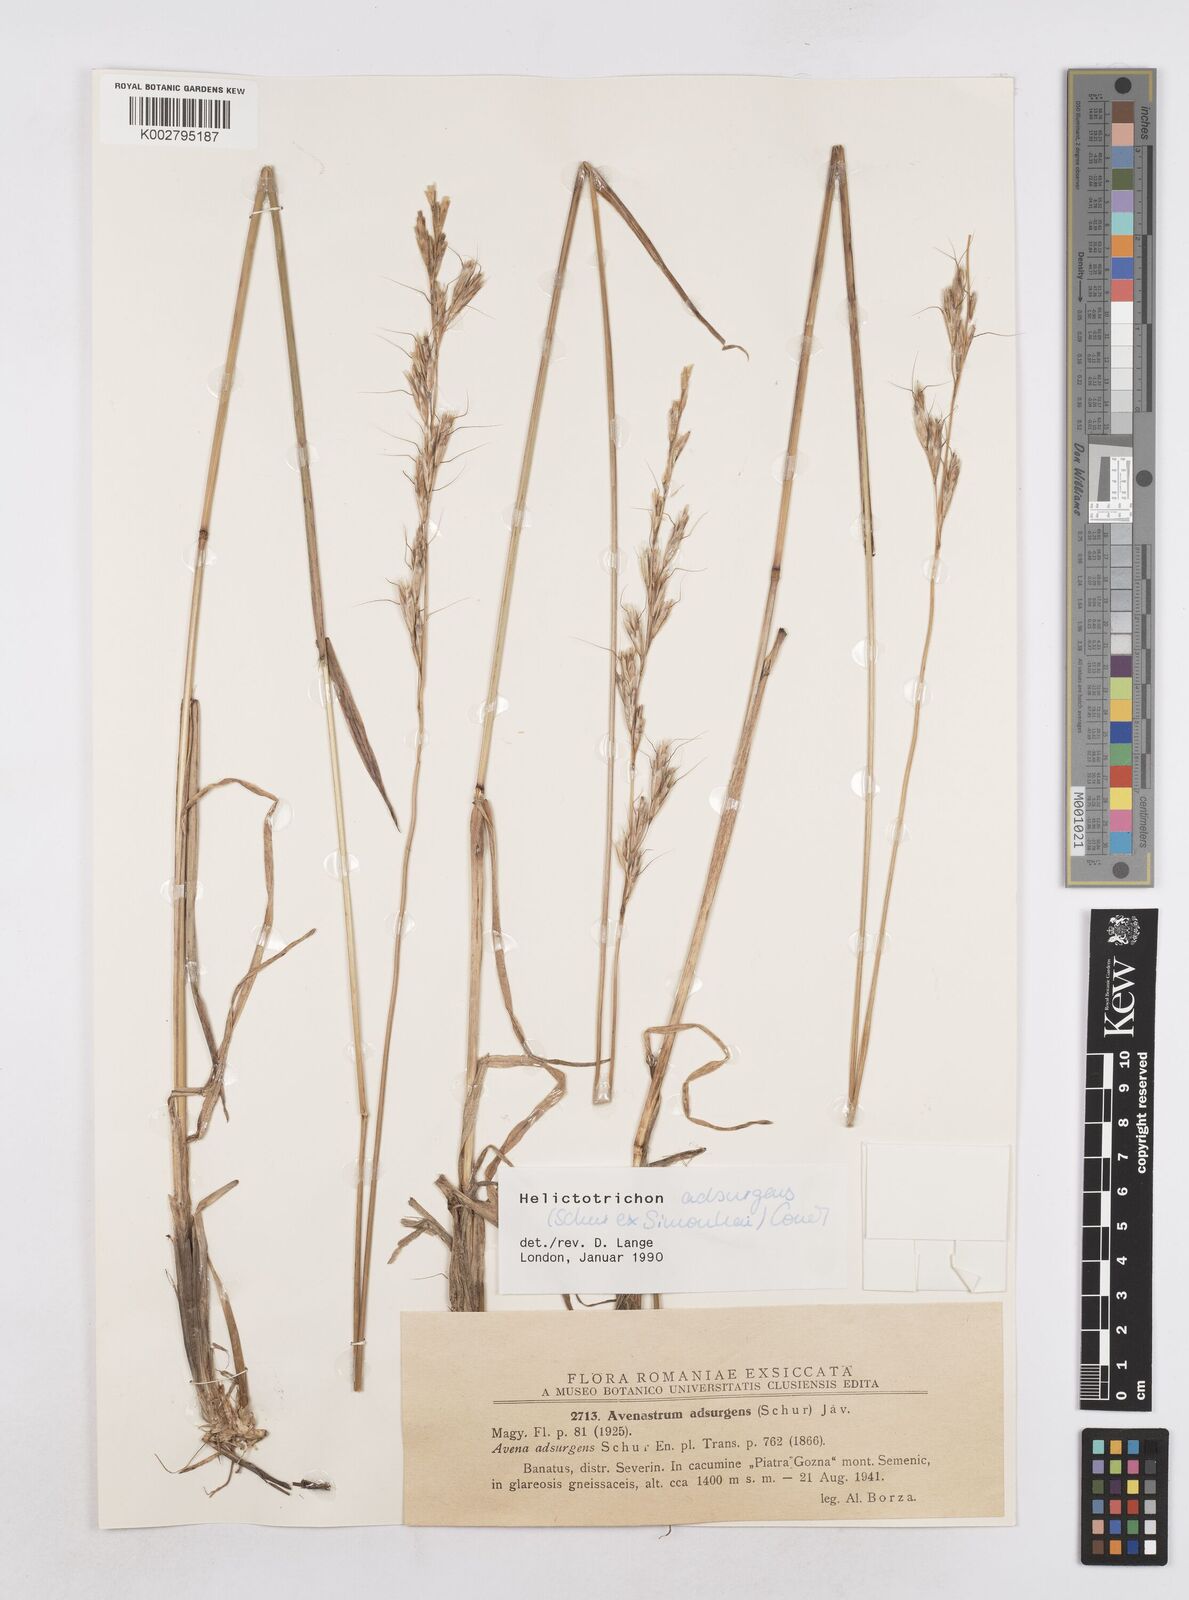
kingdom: Plantae
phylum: Tracheophyta
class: Liliopsida
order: Poales
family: Poaceae
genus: Helictochloa
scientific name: Helictochloa pratensis
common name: Meadow oat grass
